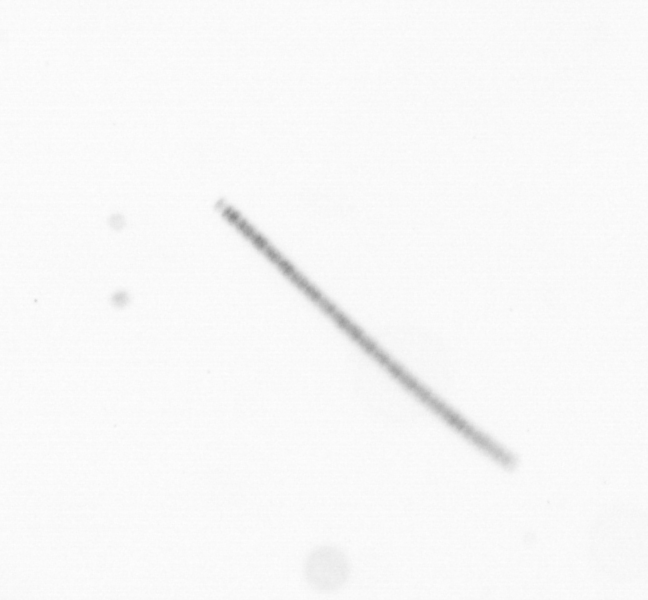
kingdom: Chromista
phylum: Ochrophyta
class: Bacillariophyceae
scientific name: Bacillariophyceae
